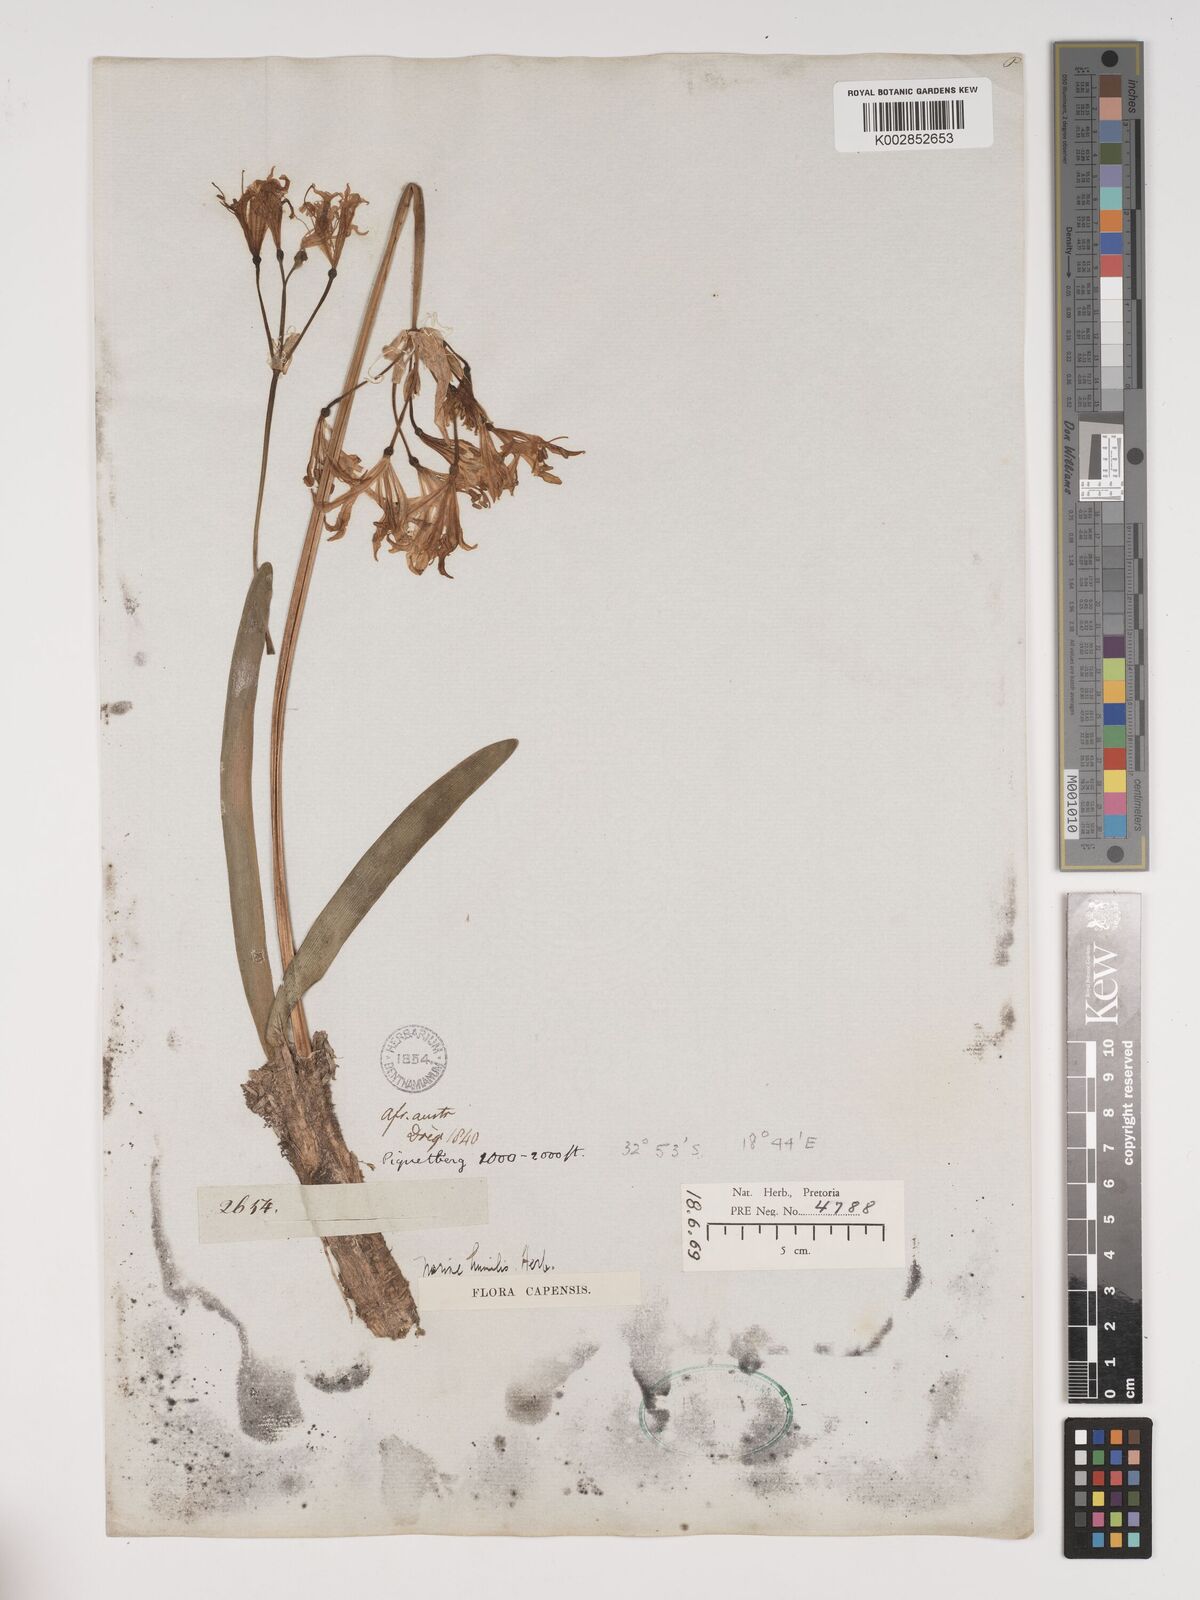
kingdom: Plantae
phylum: Tracheophyta
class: Liliopsida
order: Asparagales
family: Amaryllidaceae
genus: Nerine
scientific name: Nerine humilis
